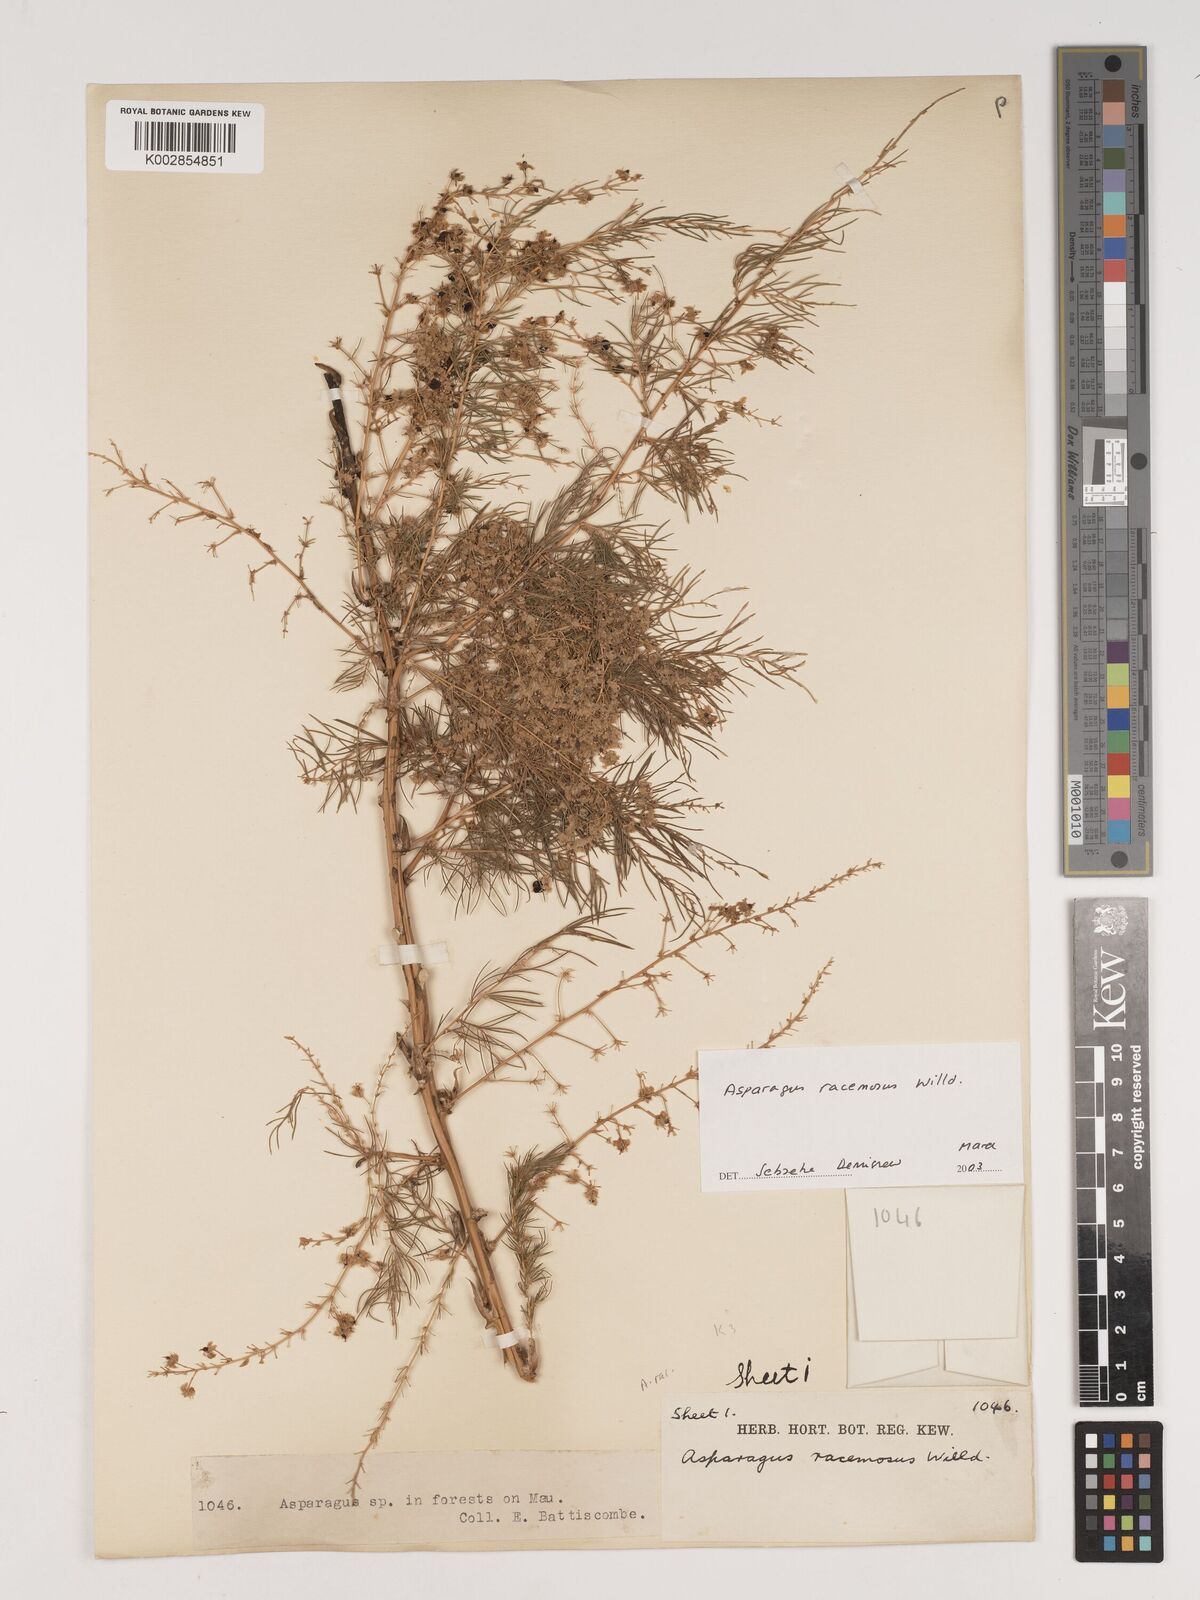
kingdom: Plantae
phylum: Tracheophyta
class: Liliopsida
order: Asparagales
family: Asparagaceae
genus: Asparagus
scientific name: Asparagus racemosus
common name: Asparagus-fern
